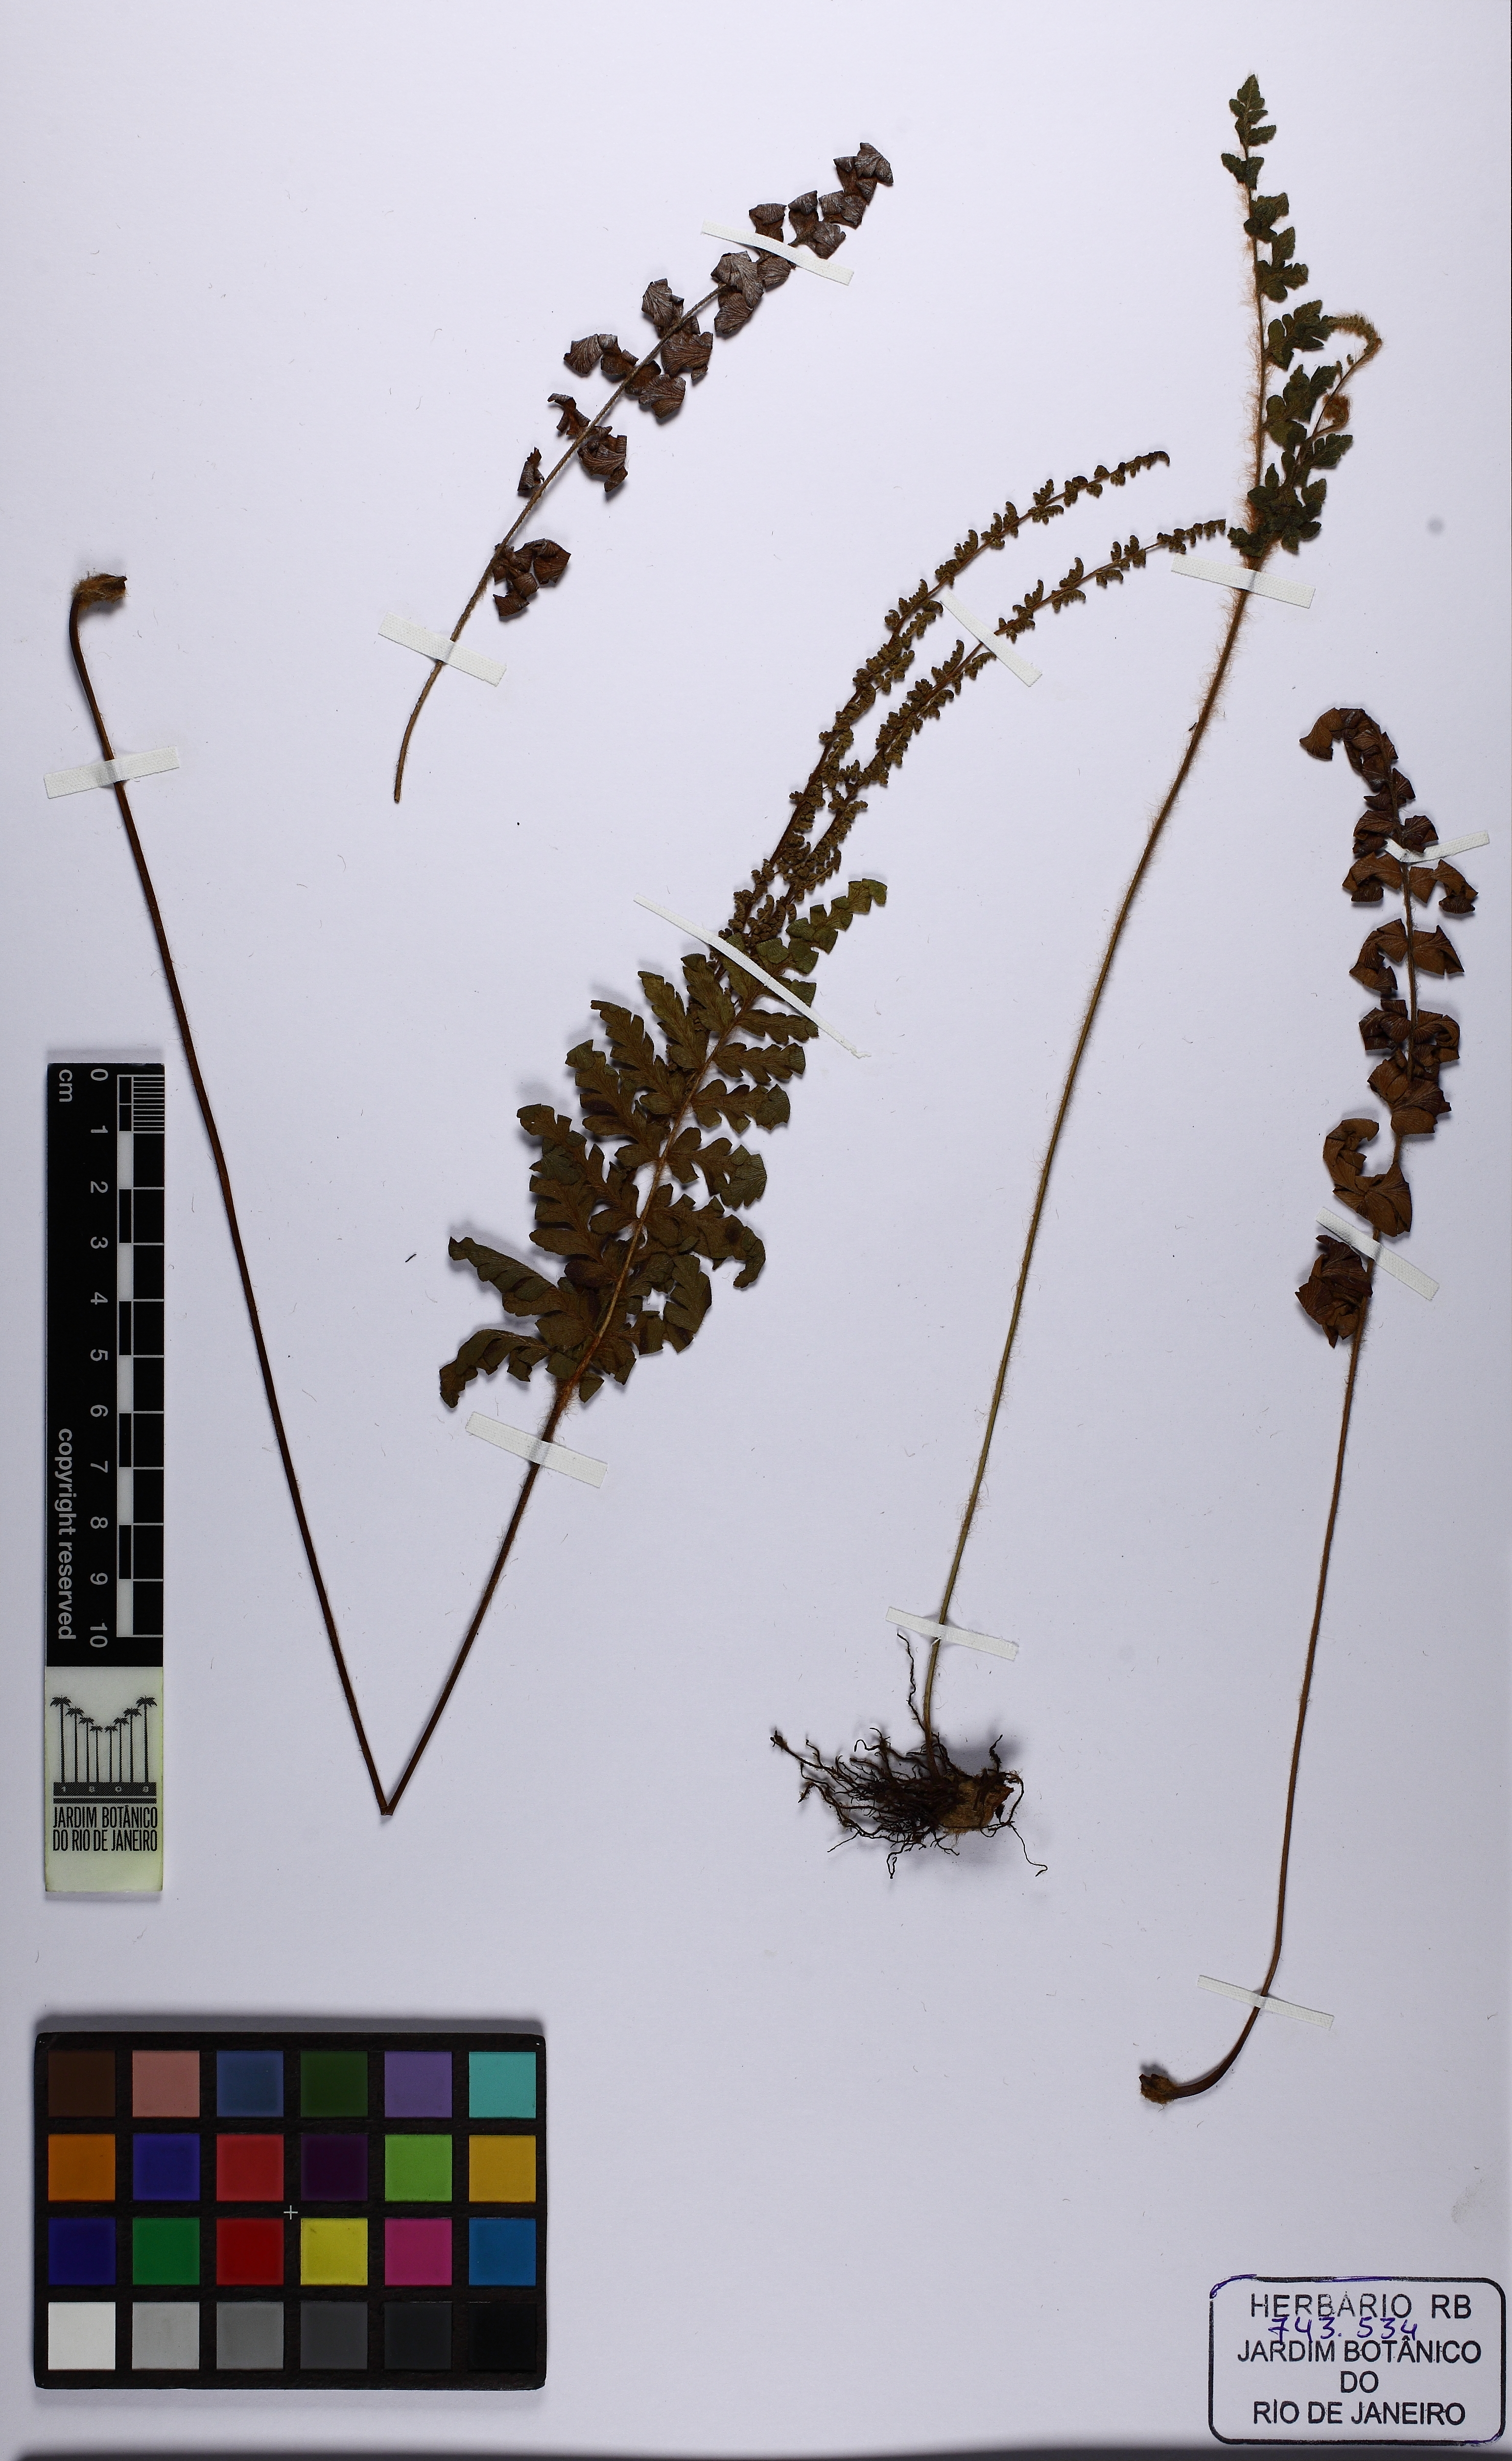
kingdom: Plantae
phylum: Tracheophyta
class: Polypodiopsida
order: Schizaeales
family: Anemiaceae
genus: Anemia
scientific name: Anemia villosa
